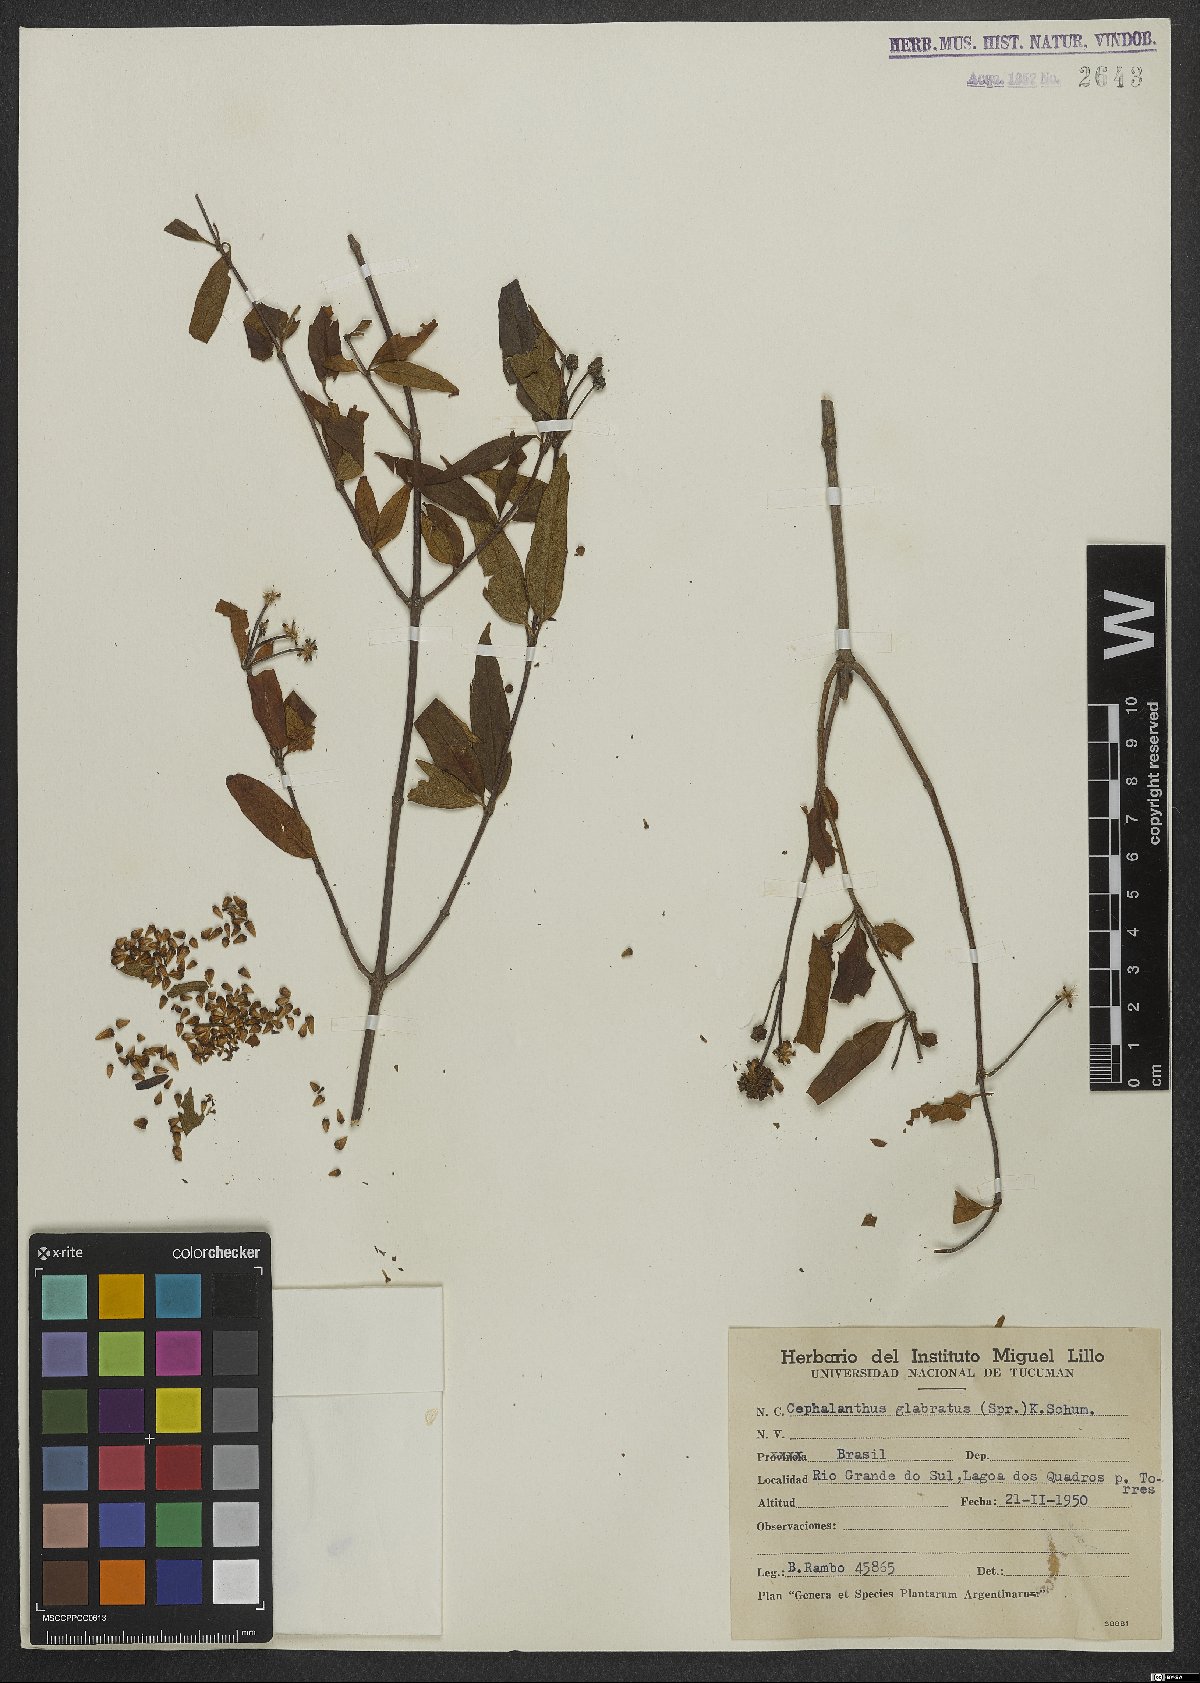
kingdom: Plantae
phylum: Tracheophyta
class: Magnoliopsida
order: Gentianales
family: Rubiaceae
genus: Cephalanthus
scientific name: Cephalanthus glabratus
